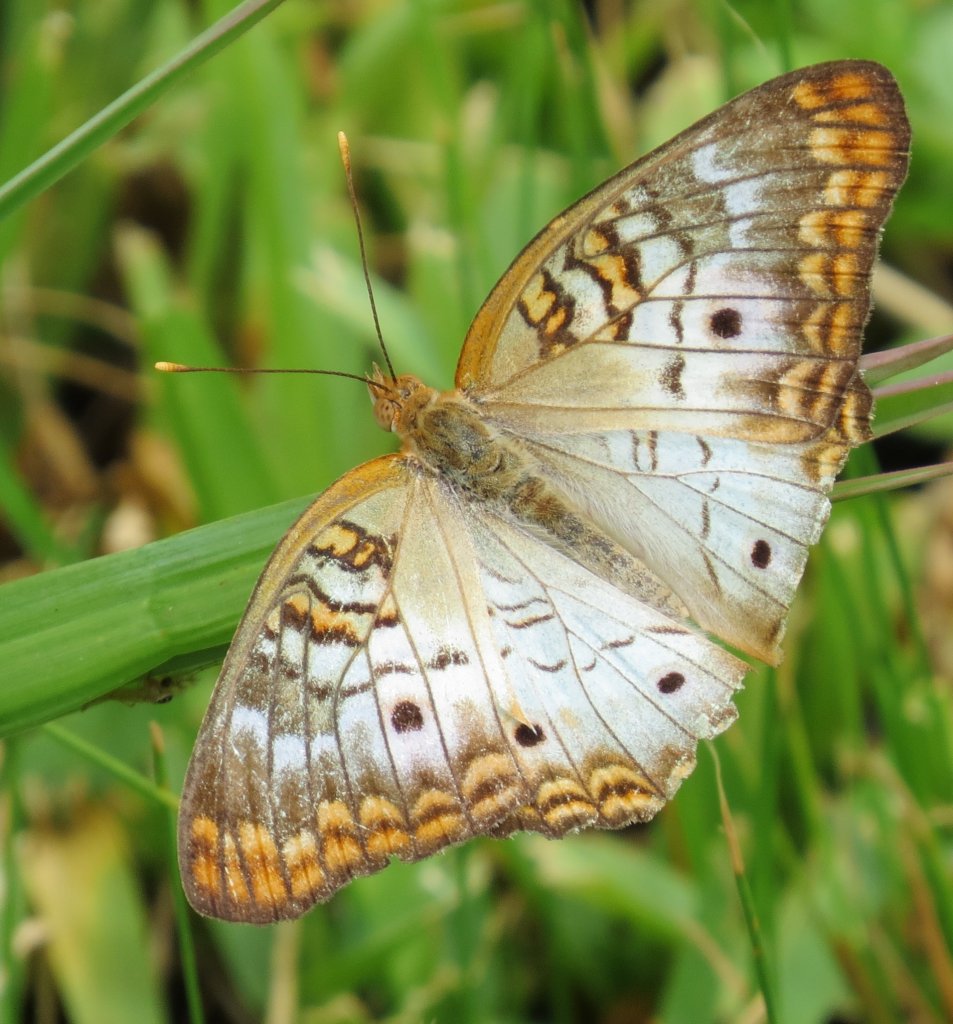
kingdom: Animalia
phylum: Arthropoda
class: Insecta
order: Lepidoptera
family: Nymphalidae
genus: Anartia
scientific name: Anartia jatrophae
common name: White Peacock
